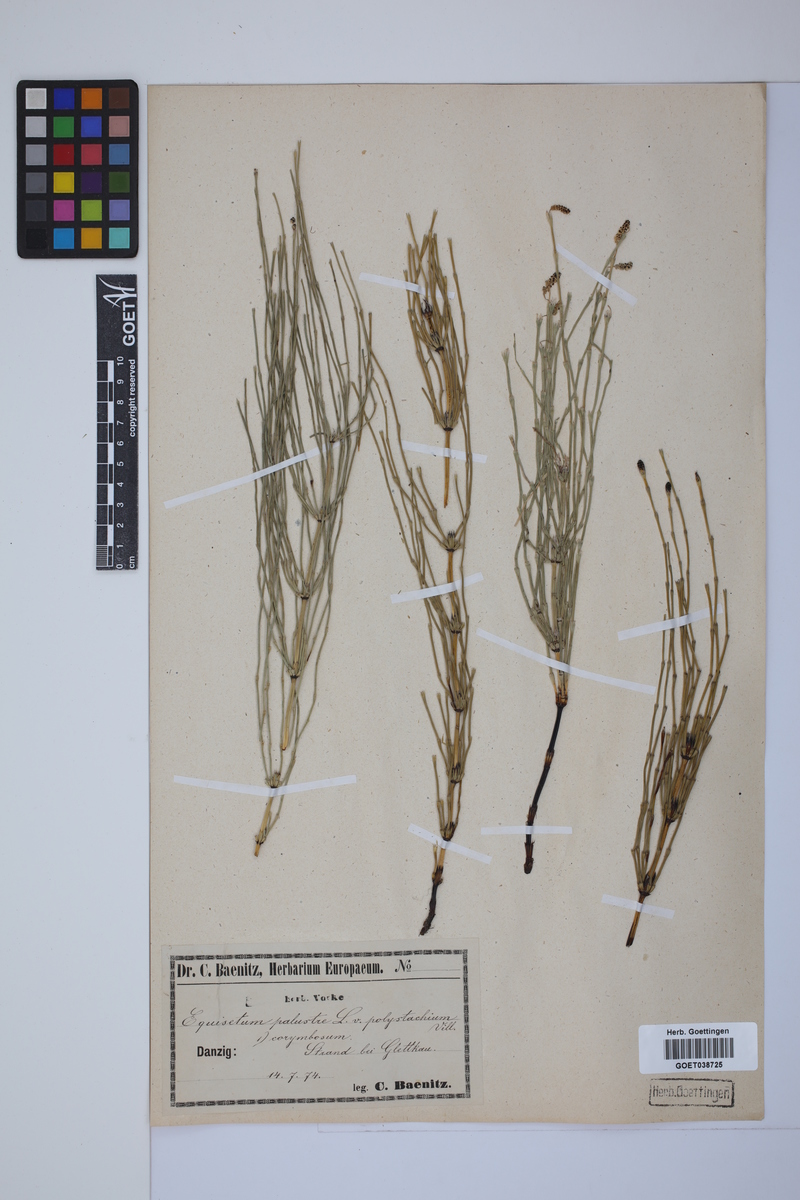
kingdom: Plantae
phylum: Tracheophyta
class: Polypodiopsida
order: Equisetales
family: Equisetaceae
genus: Equisetum
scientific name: Equisetum palustre
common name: Marsh horsetail
